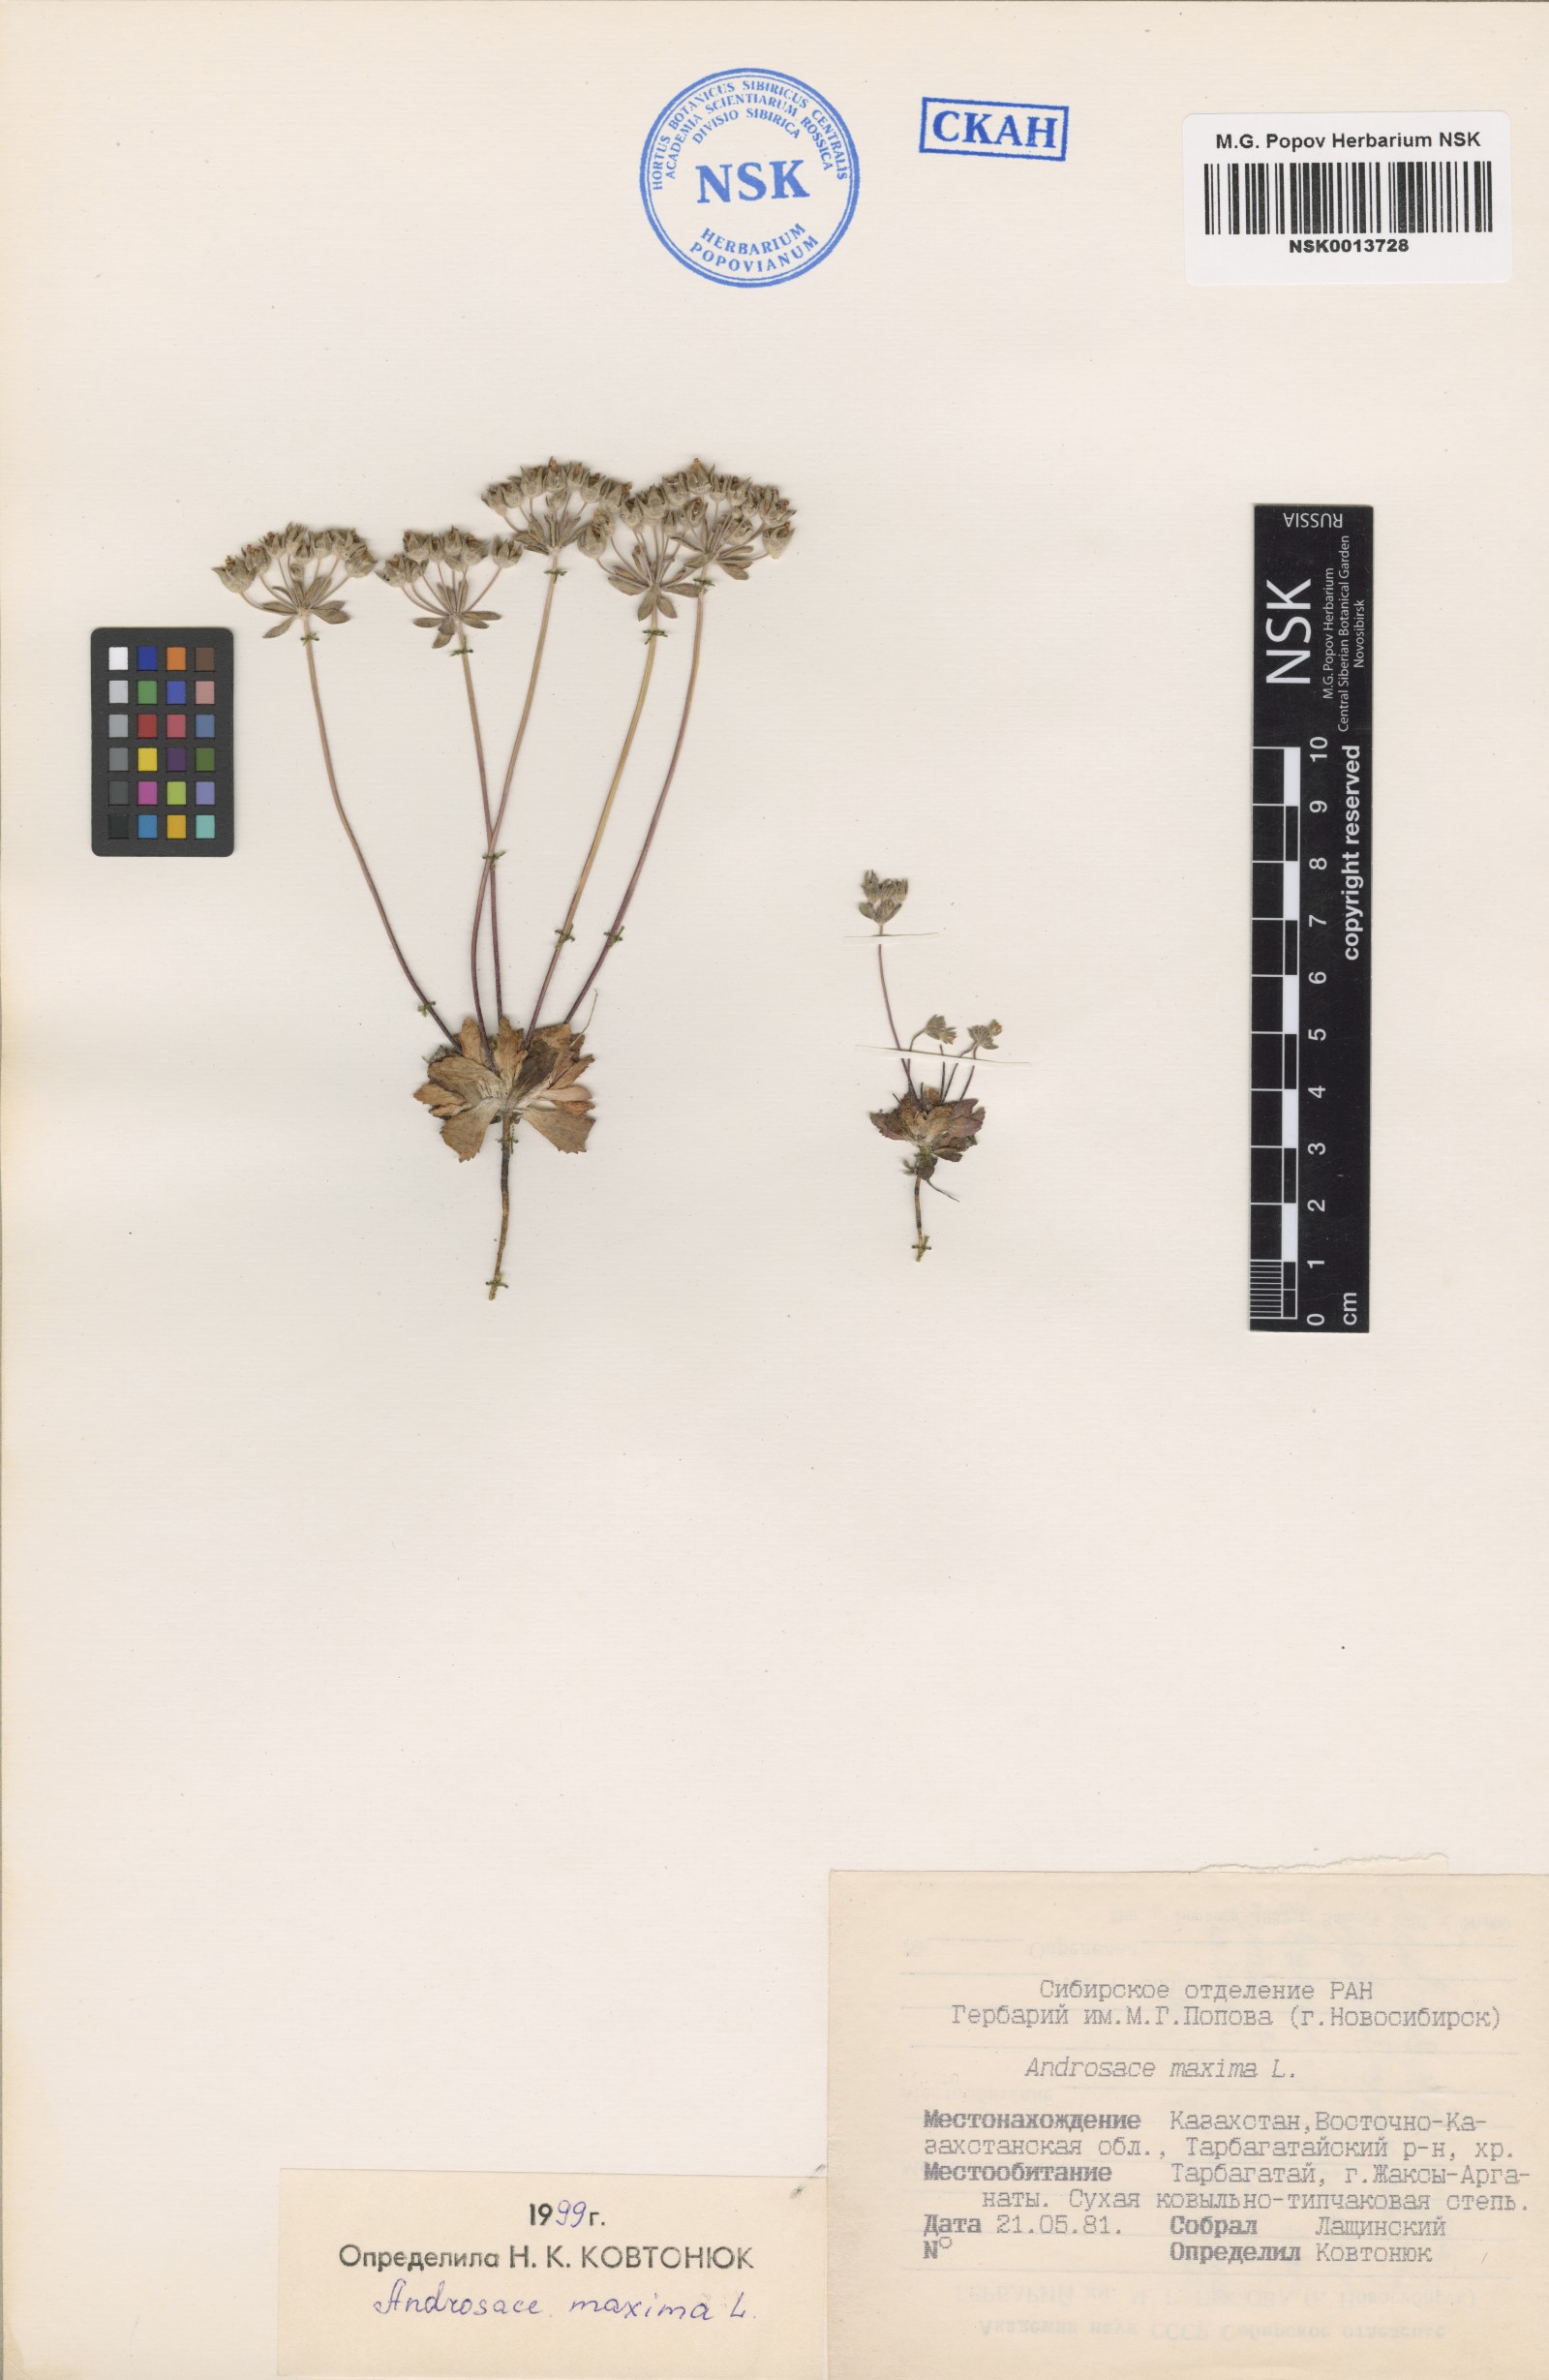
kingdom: Plantae
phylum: Tracheophyta
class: Magnoliopsida
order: Ericales
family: Primulaceae
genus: Androsace
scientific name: Androsace maxima
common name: Annual androsace
